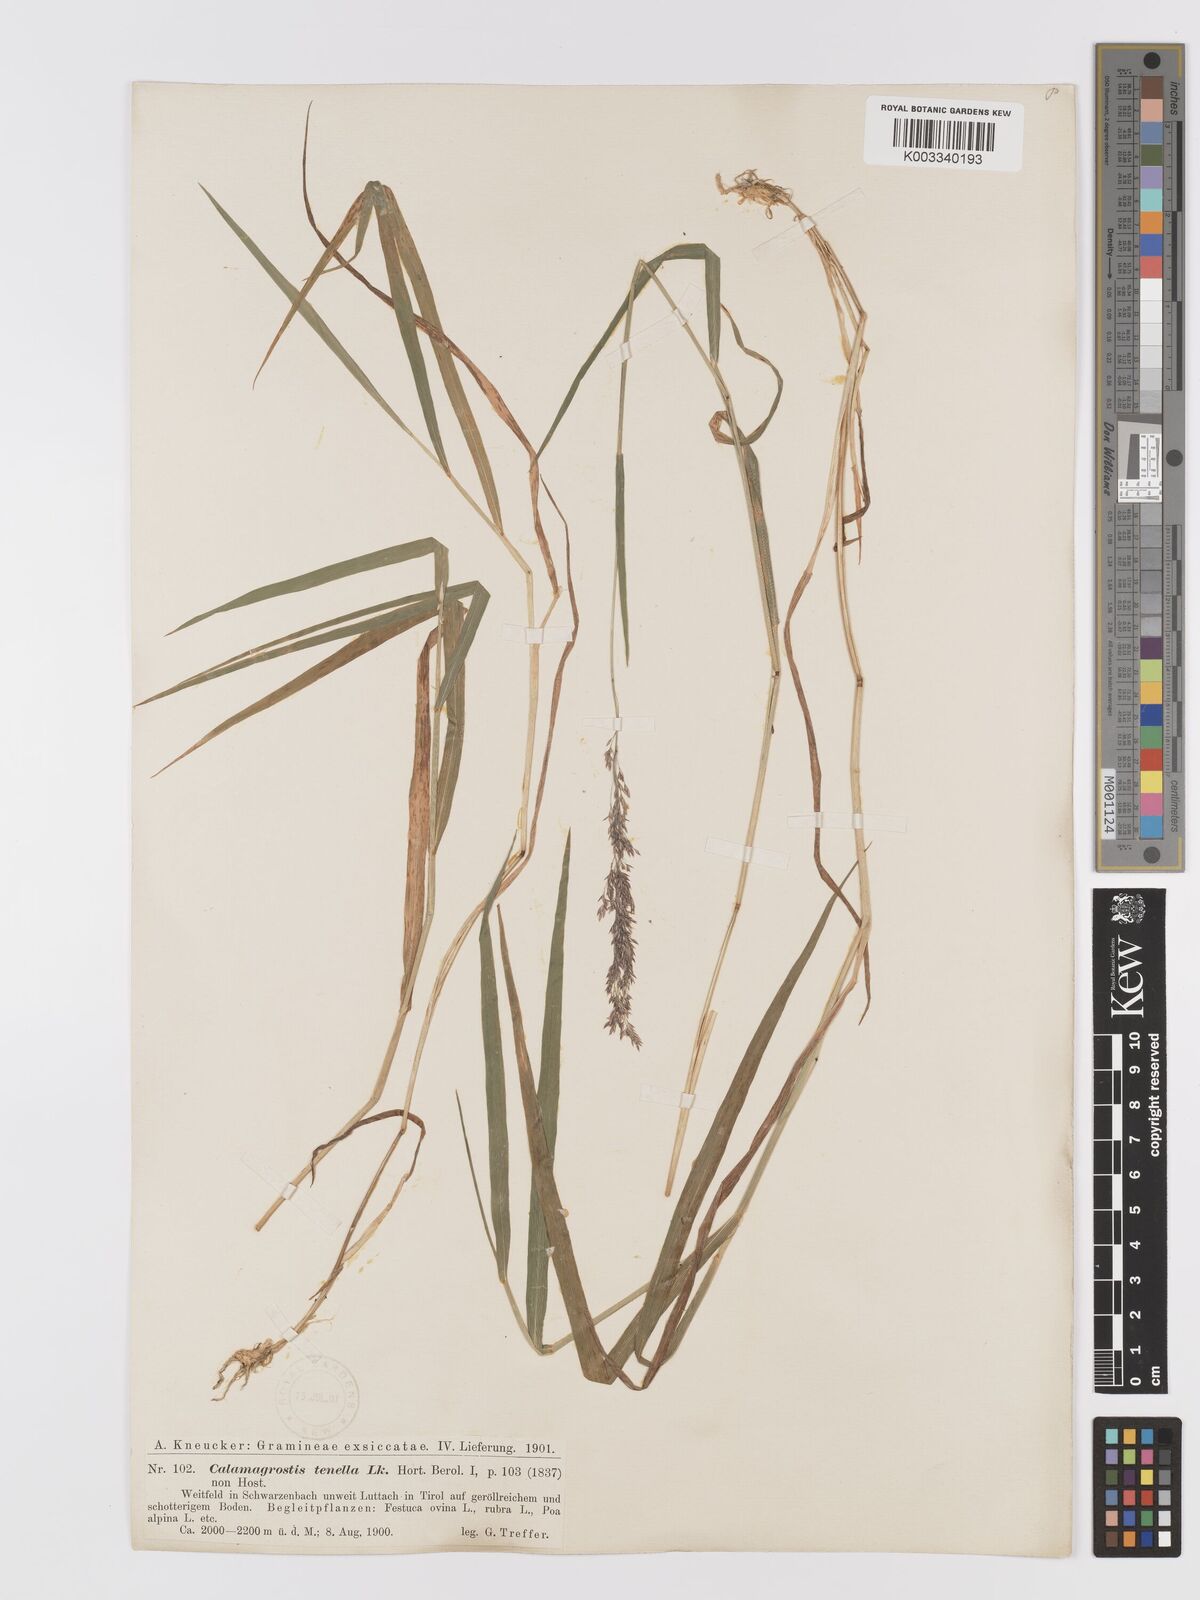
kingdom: Plantae
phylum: Tracheophyta
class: Liliopsida
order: Poales
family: Poaceae
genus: Agrostis
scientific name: Agrostis schraderiana
